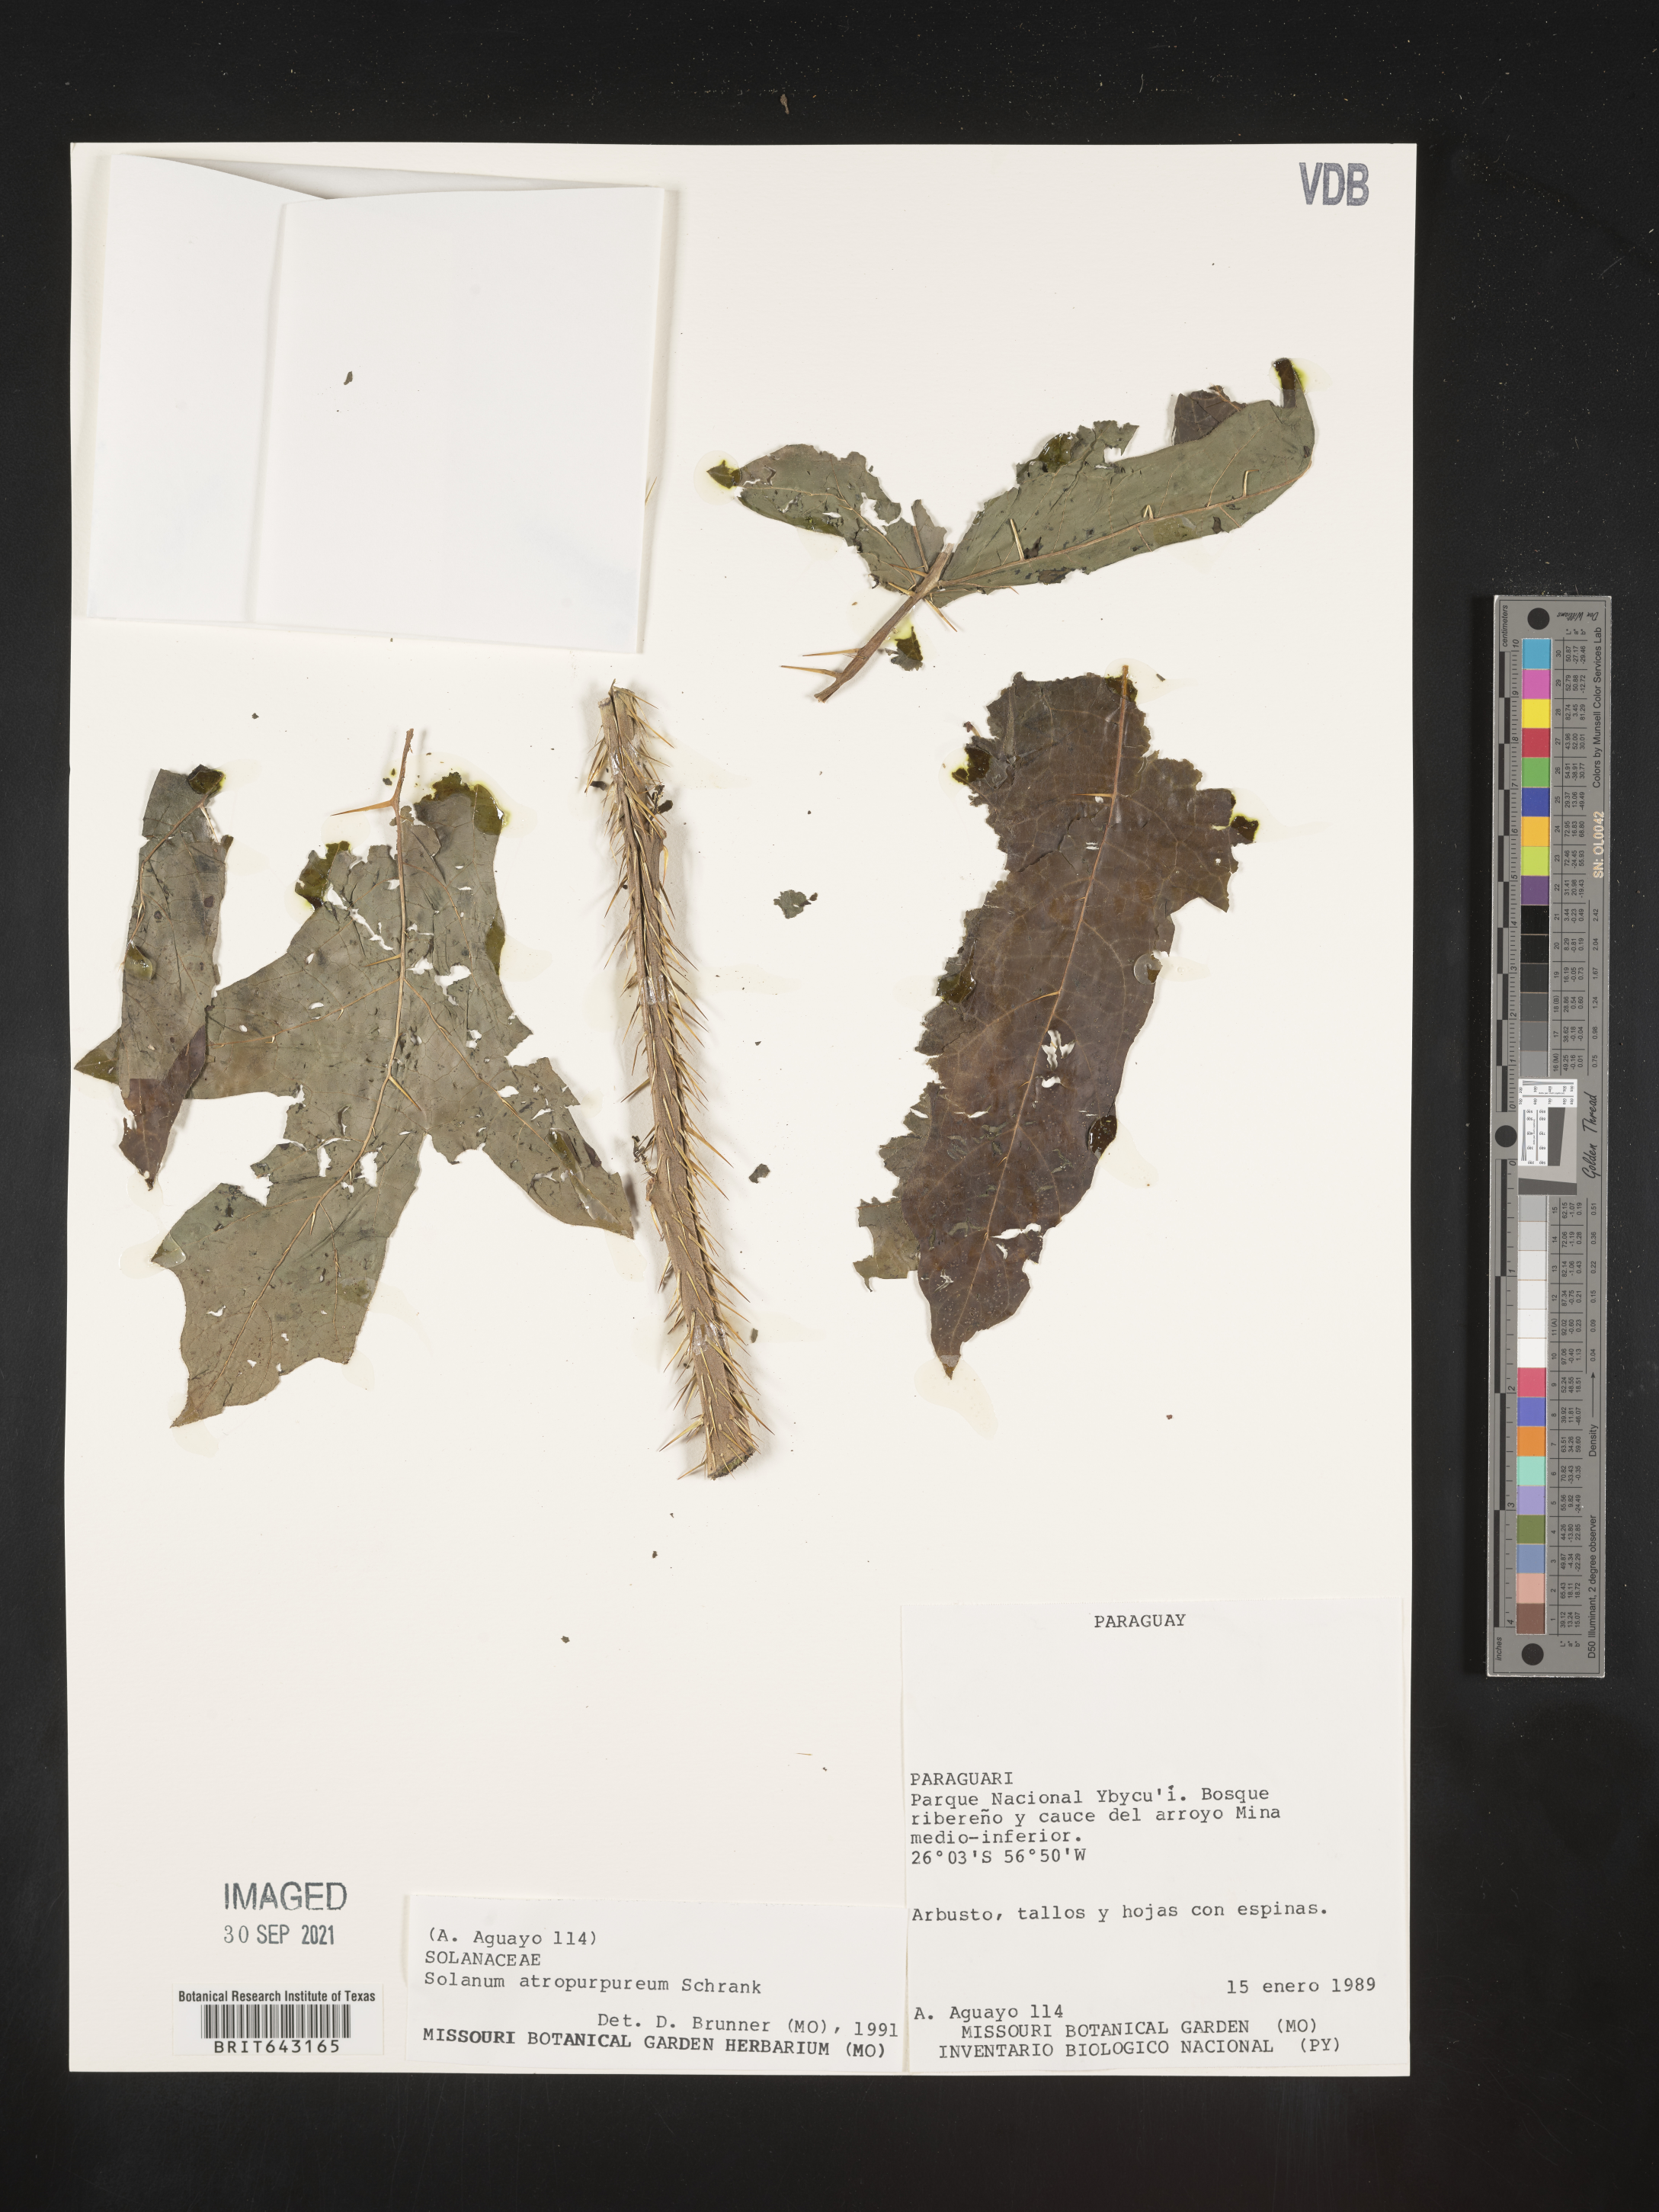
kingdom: Plantae
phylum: Tracheophyta
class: Magnoliopsida
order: Solanales
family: Solanaceae
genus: Solanum
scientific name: Solanum
